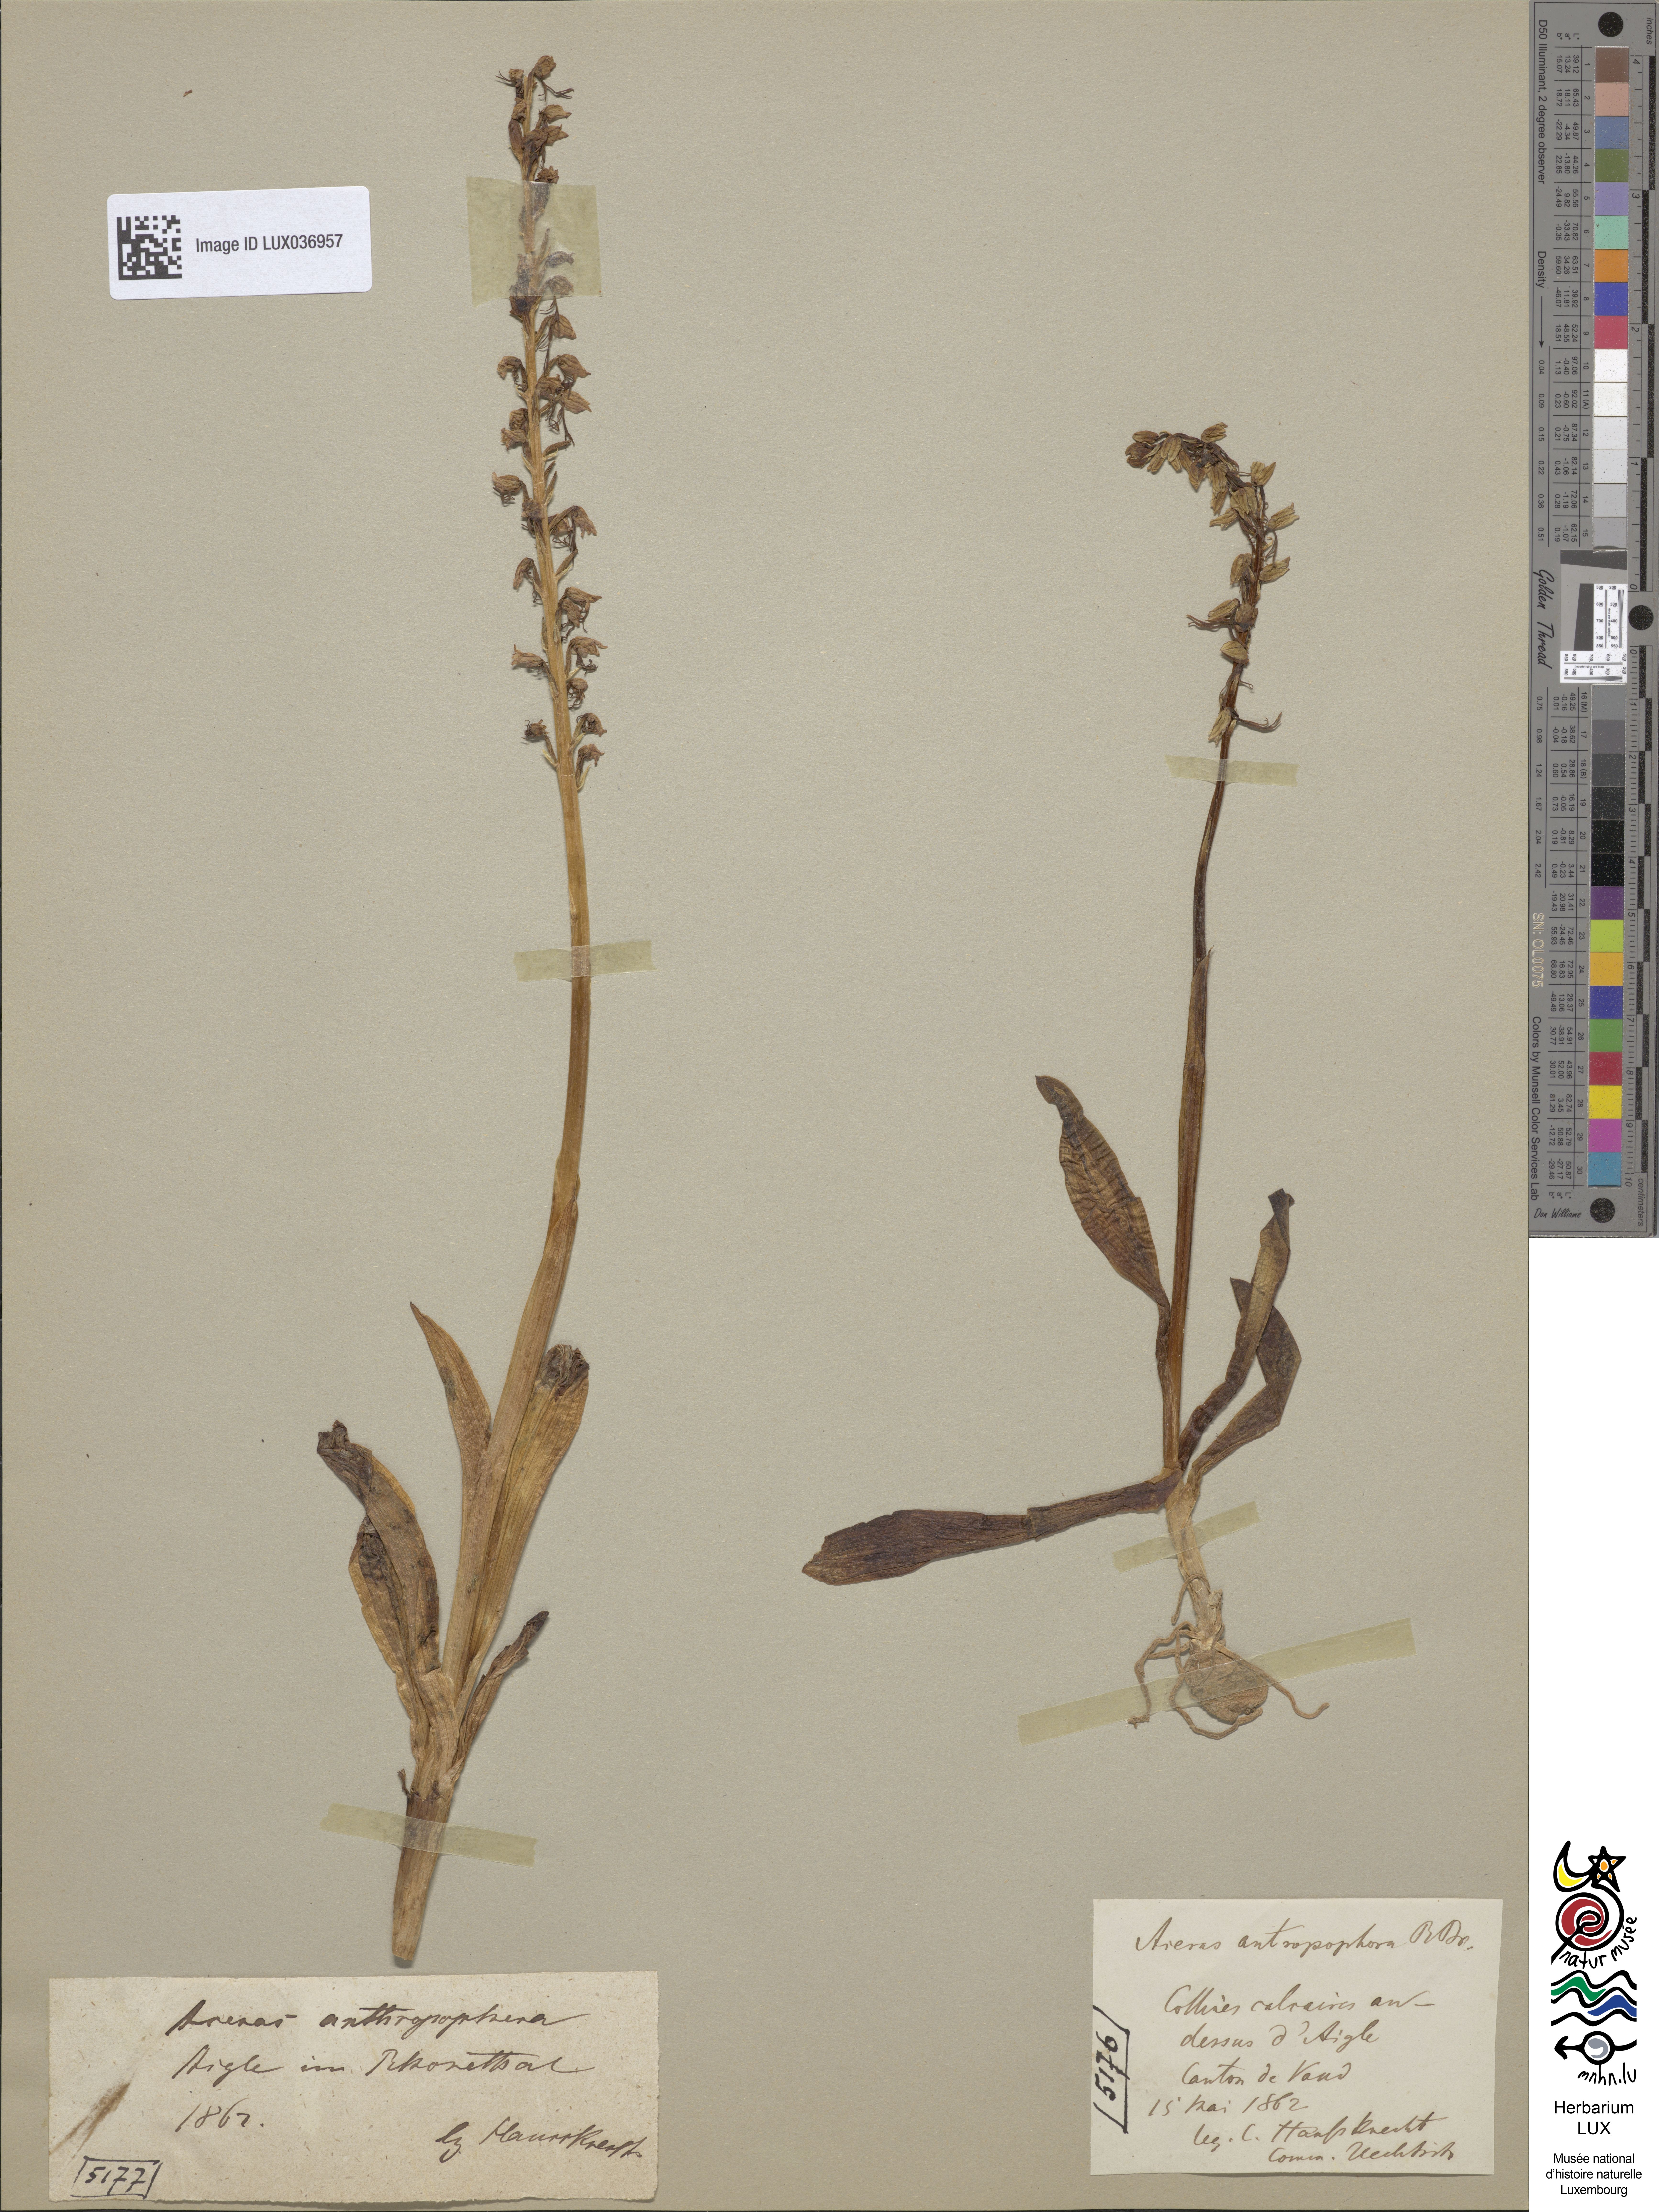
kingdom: Plantae
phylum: Tracheophyta
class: Liliopsida
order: Asparagales
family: Orchidaceae
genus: Orchis
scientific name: Orchis anthropophora
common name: Man orchid
